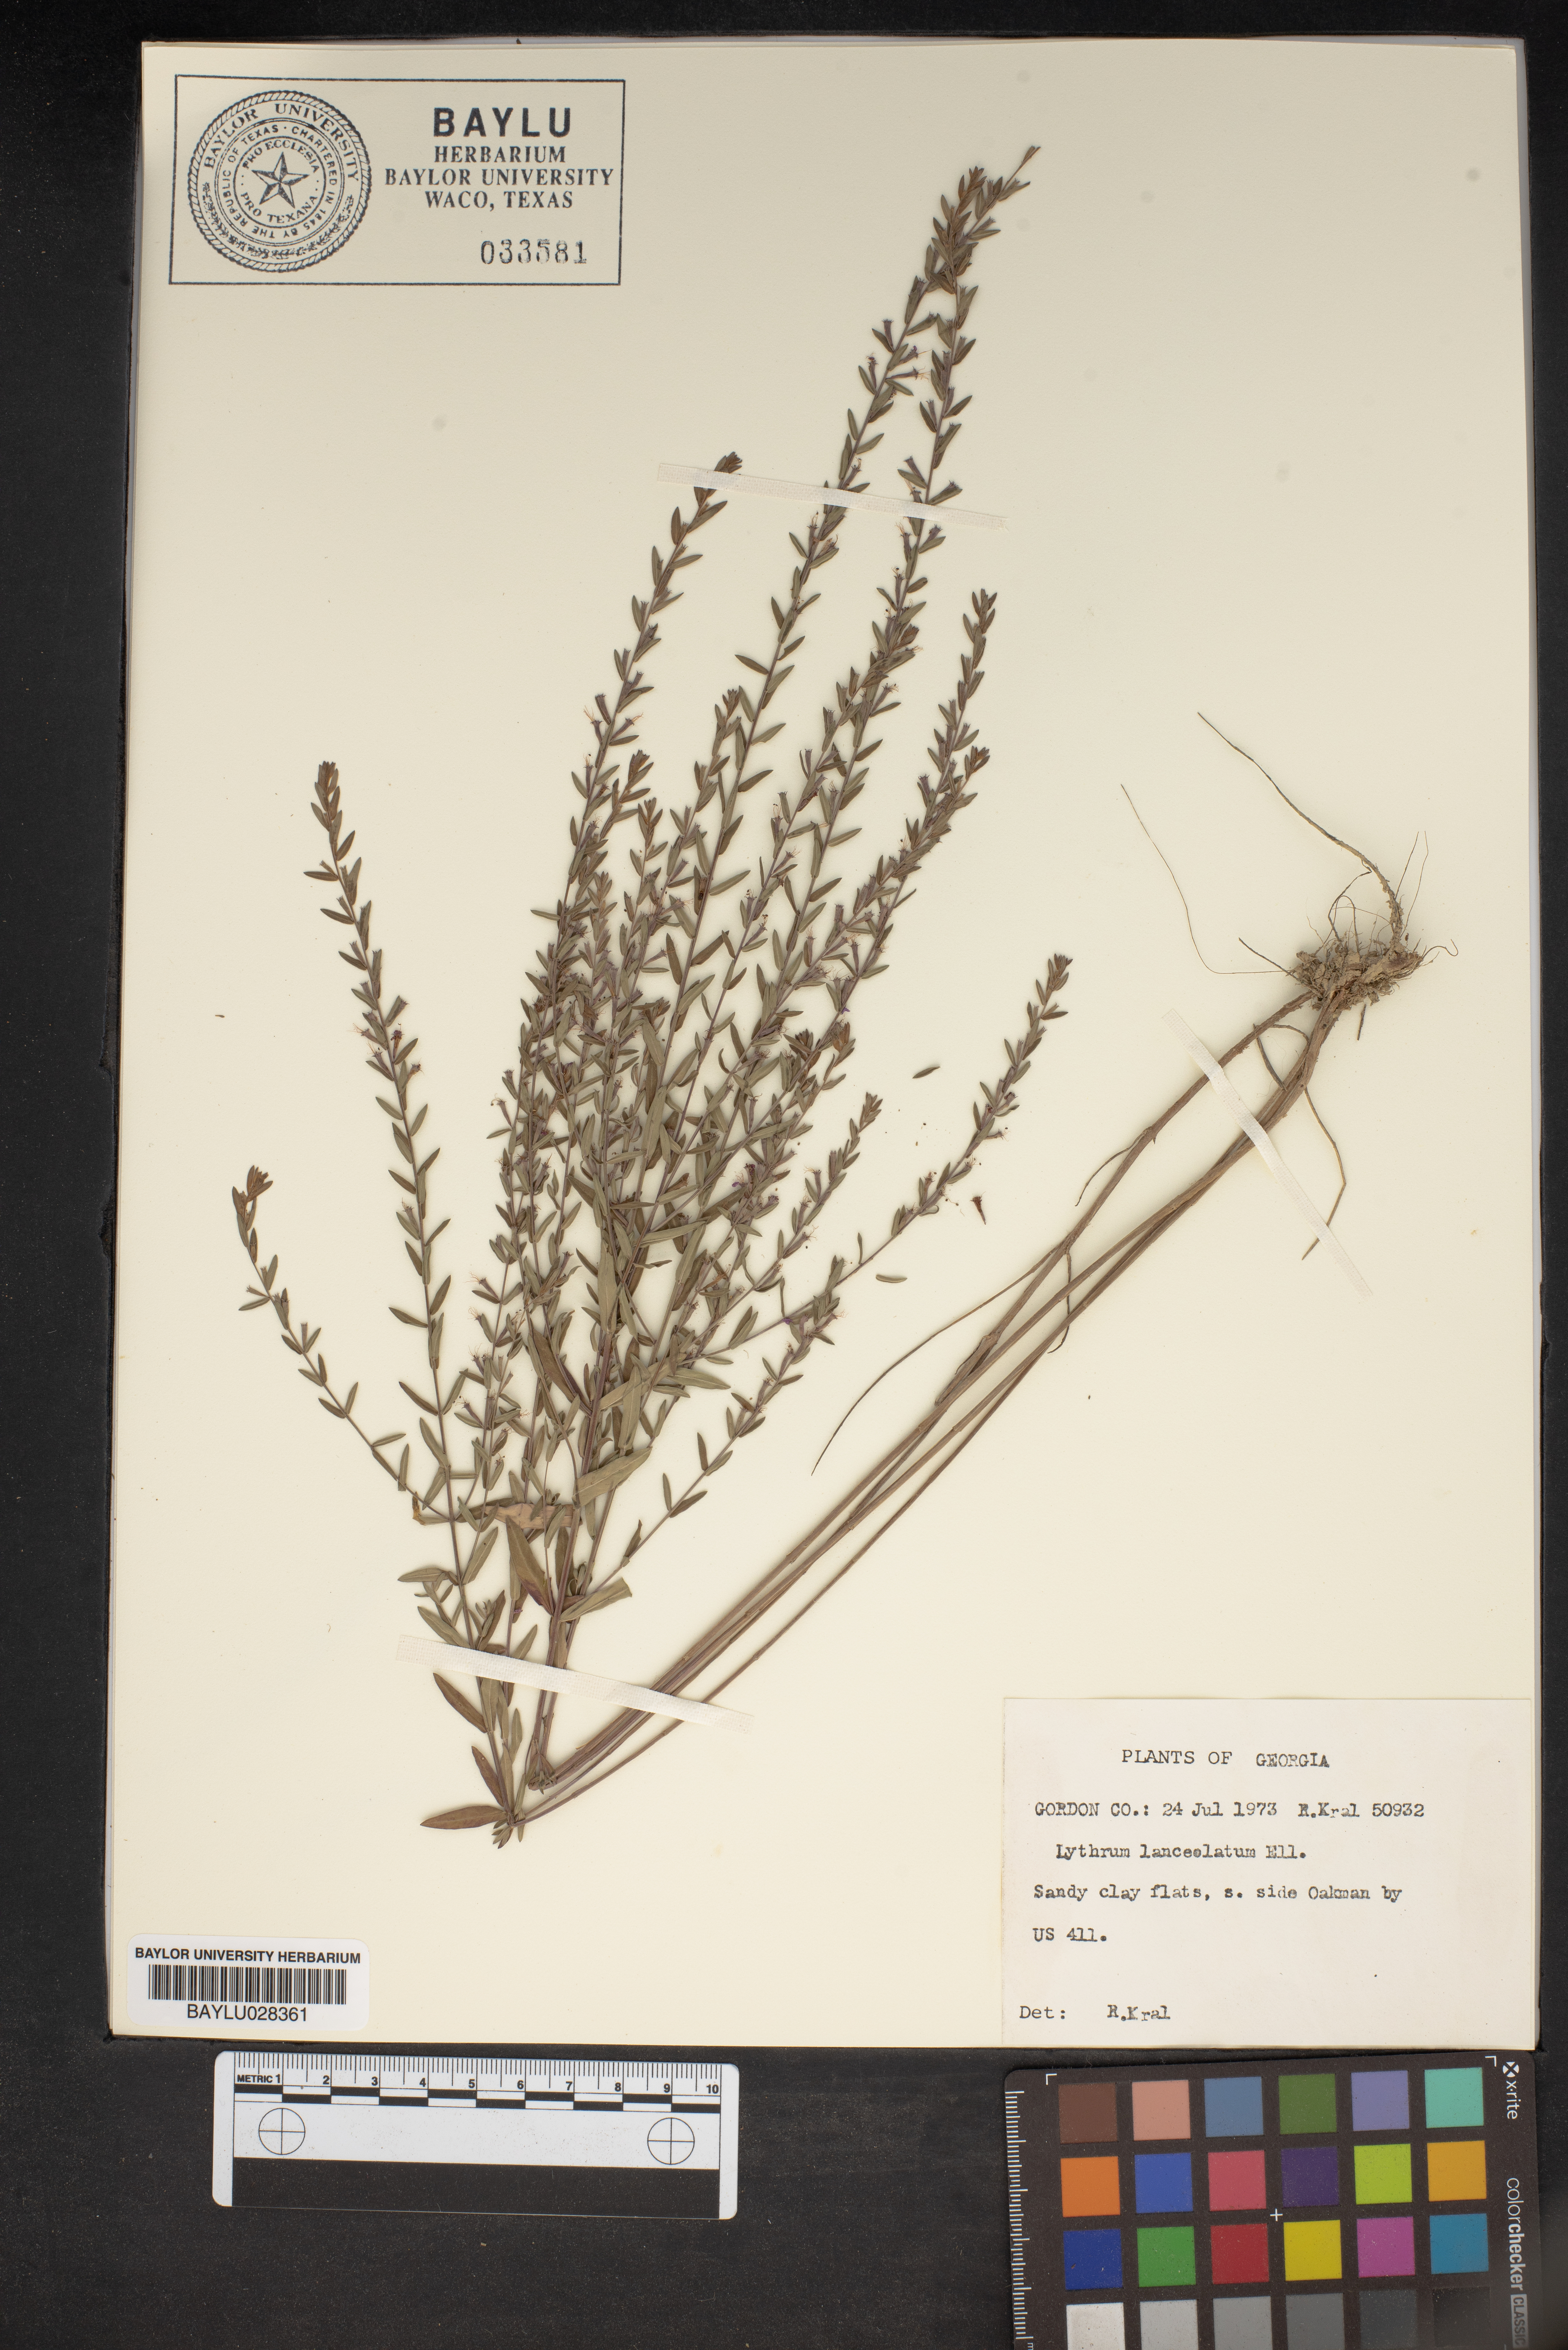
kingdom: Plantae
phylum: Tracheophyta
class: Magnoliopsida
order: Myrtales
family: Lythraceae
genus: Lythrum
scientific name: Lythrum alatum
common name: Winged loosestrife
